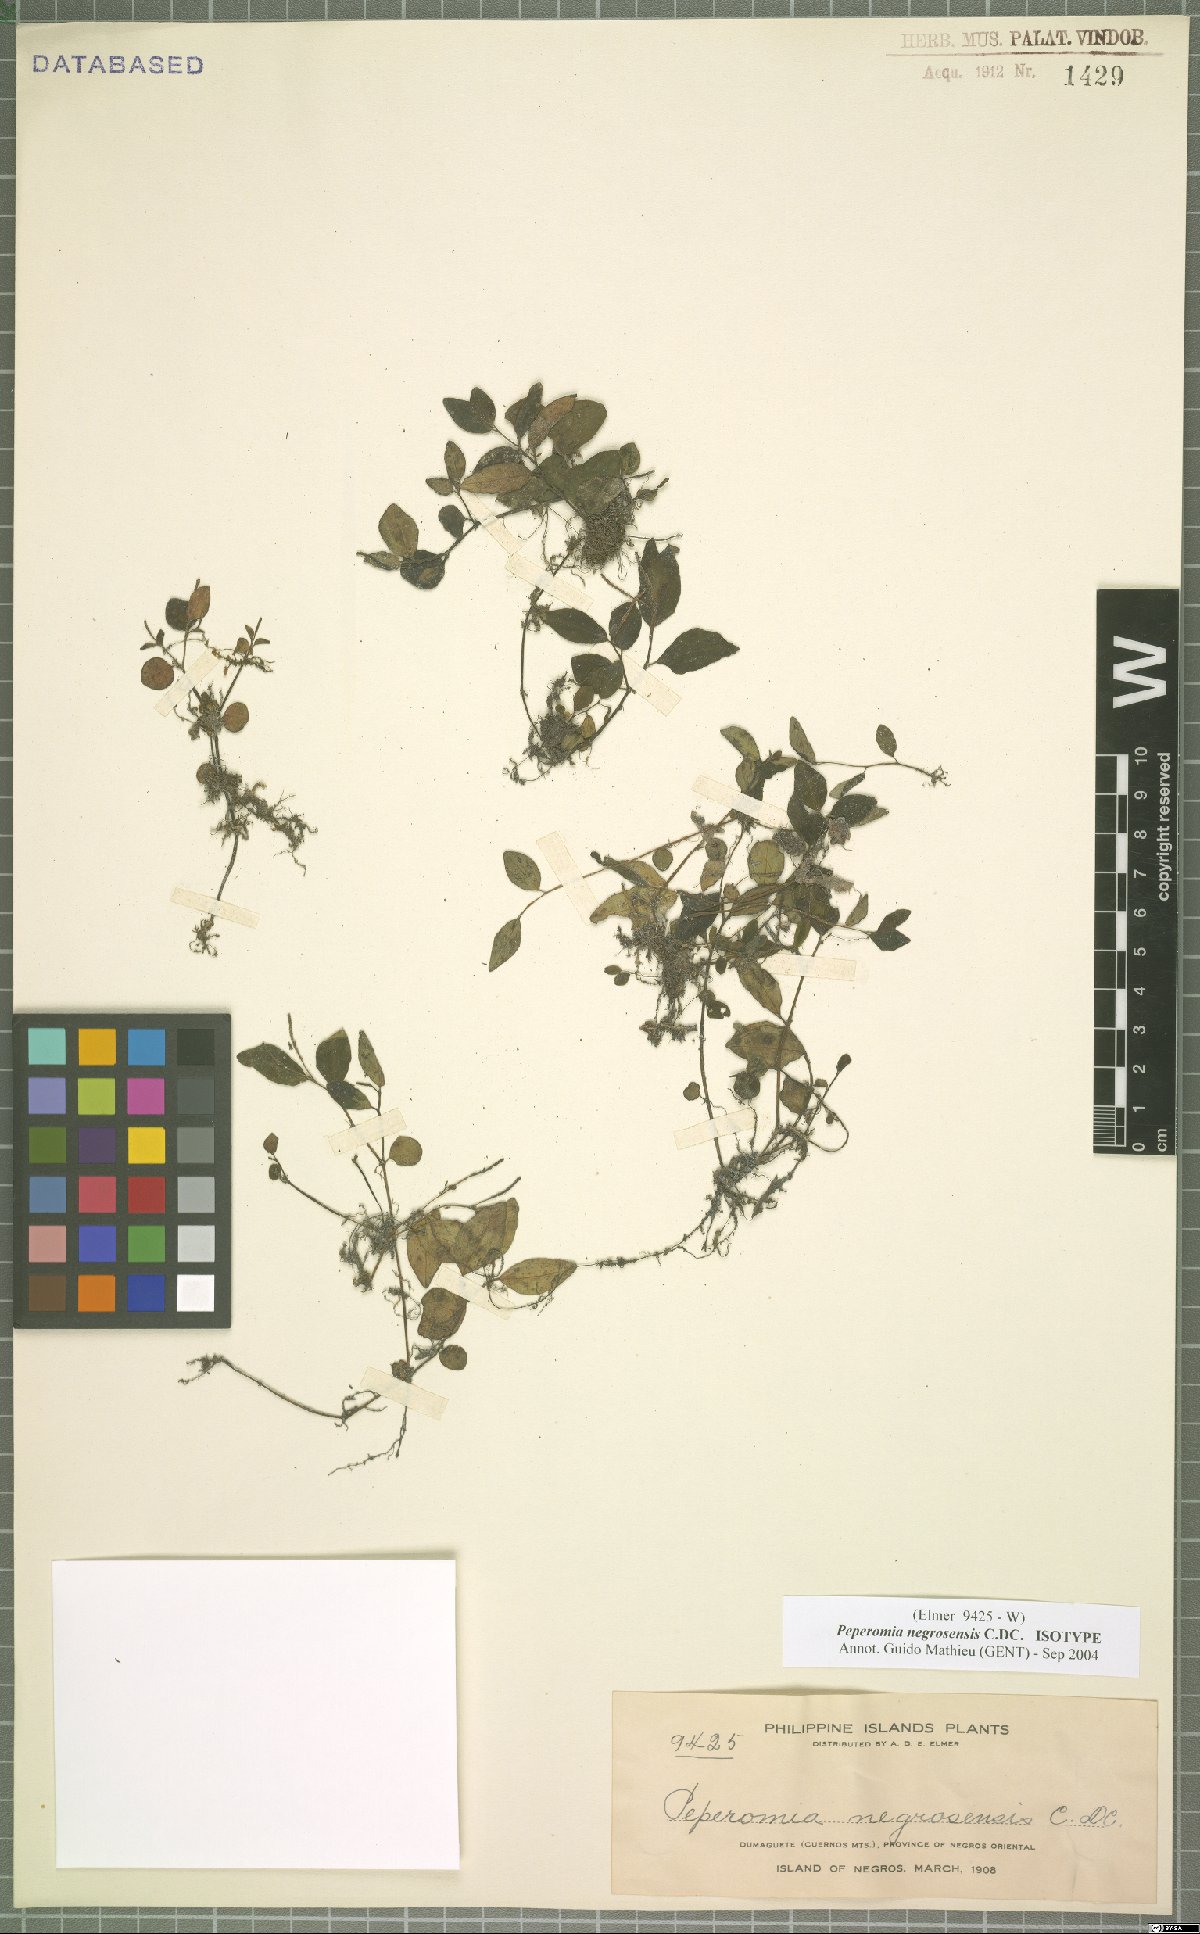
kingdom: Plantae
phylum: Tracheophyta
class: Magnoliopsida
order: Piperales
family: Piperaceae
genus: Peperomia
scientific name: Peperomia negrosensis
